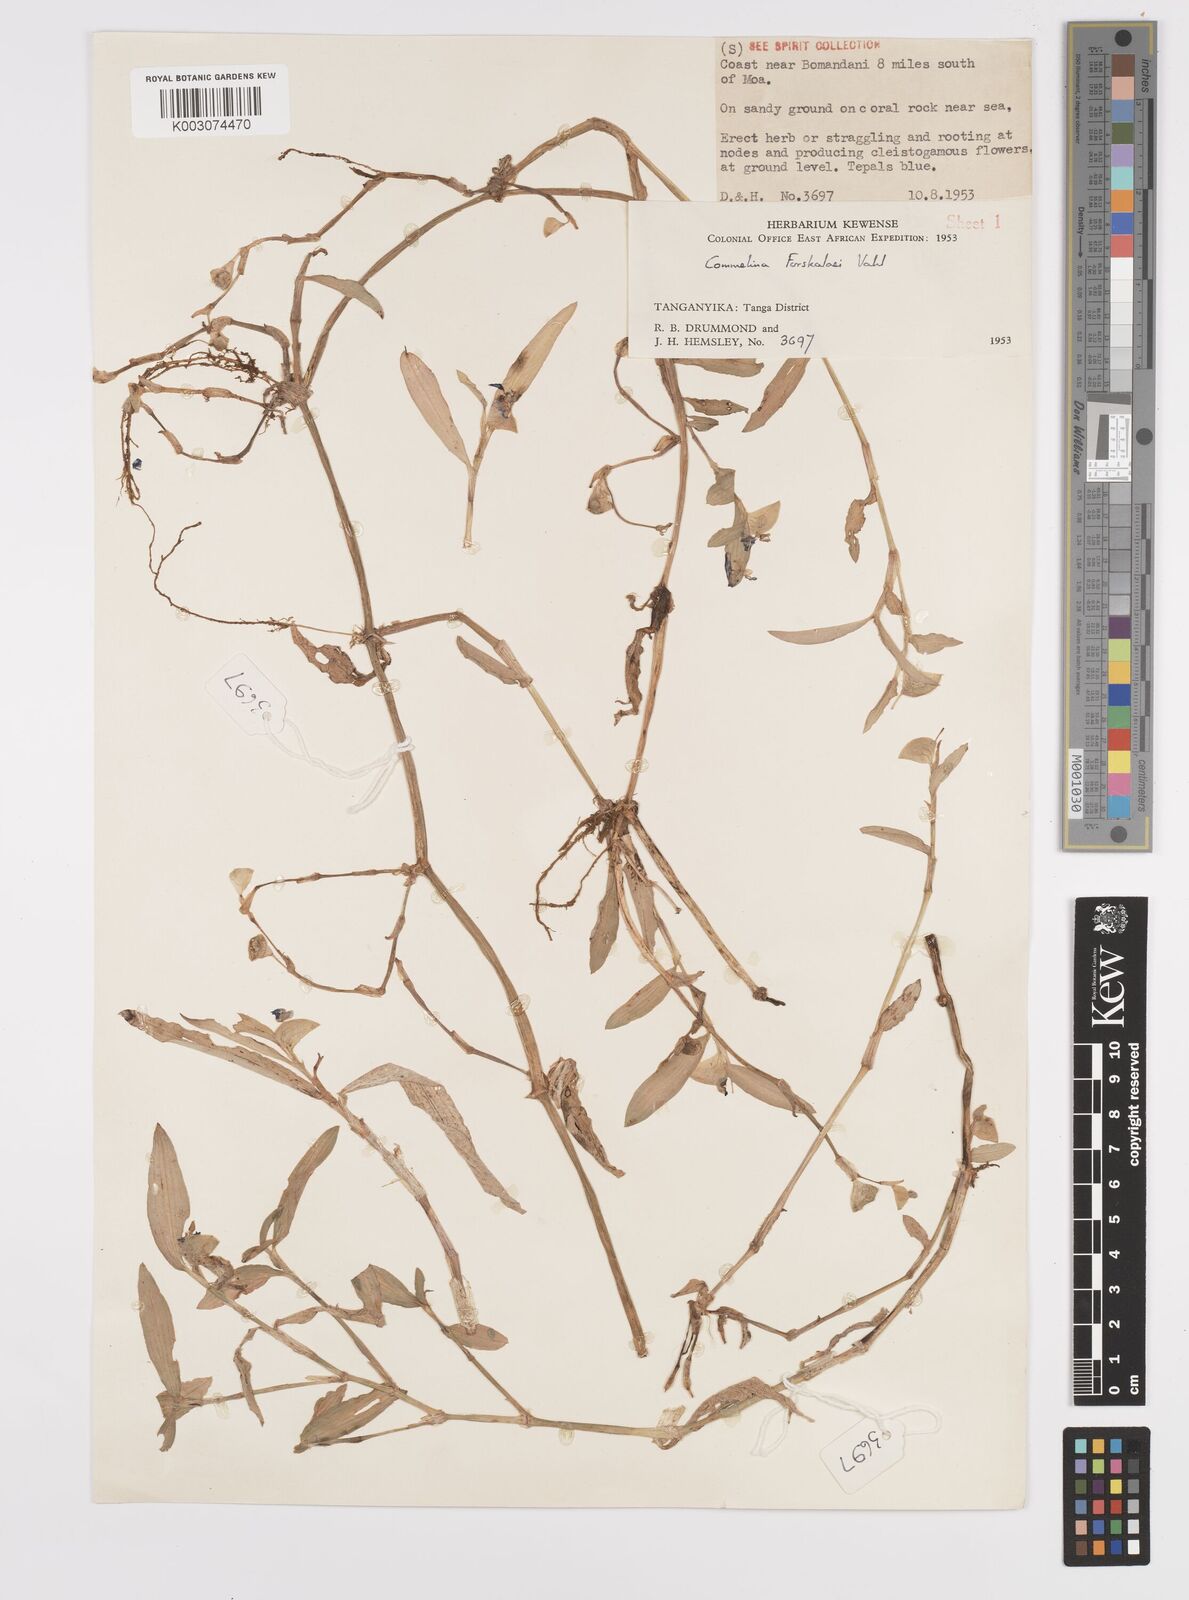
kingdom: Plantae
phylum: Tracheophyta
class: Liliopsida
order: Commelinales
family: Commelinaceae
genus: Commelina
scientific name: Commelina forskaolii
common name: Rat's ear
